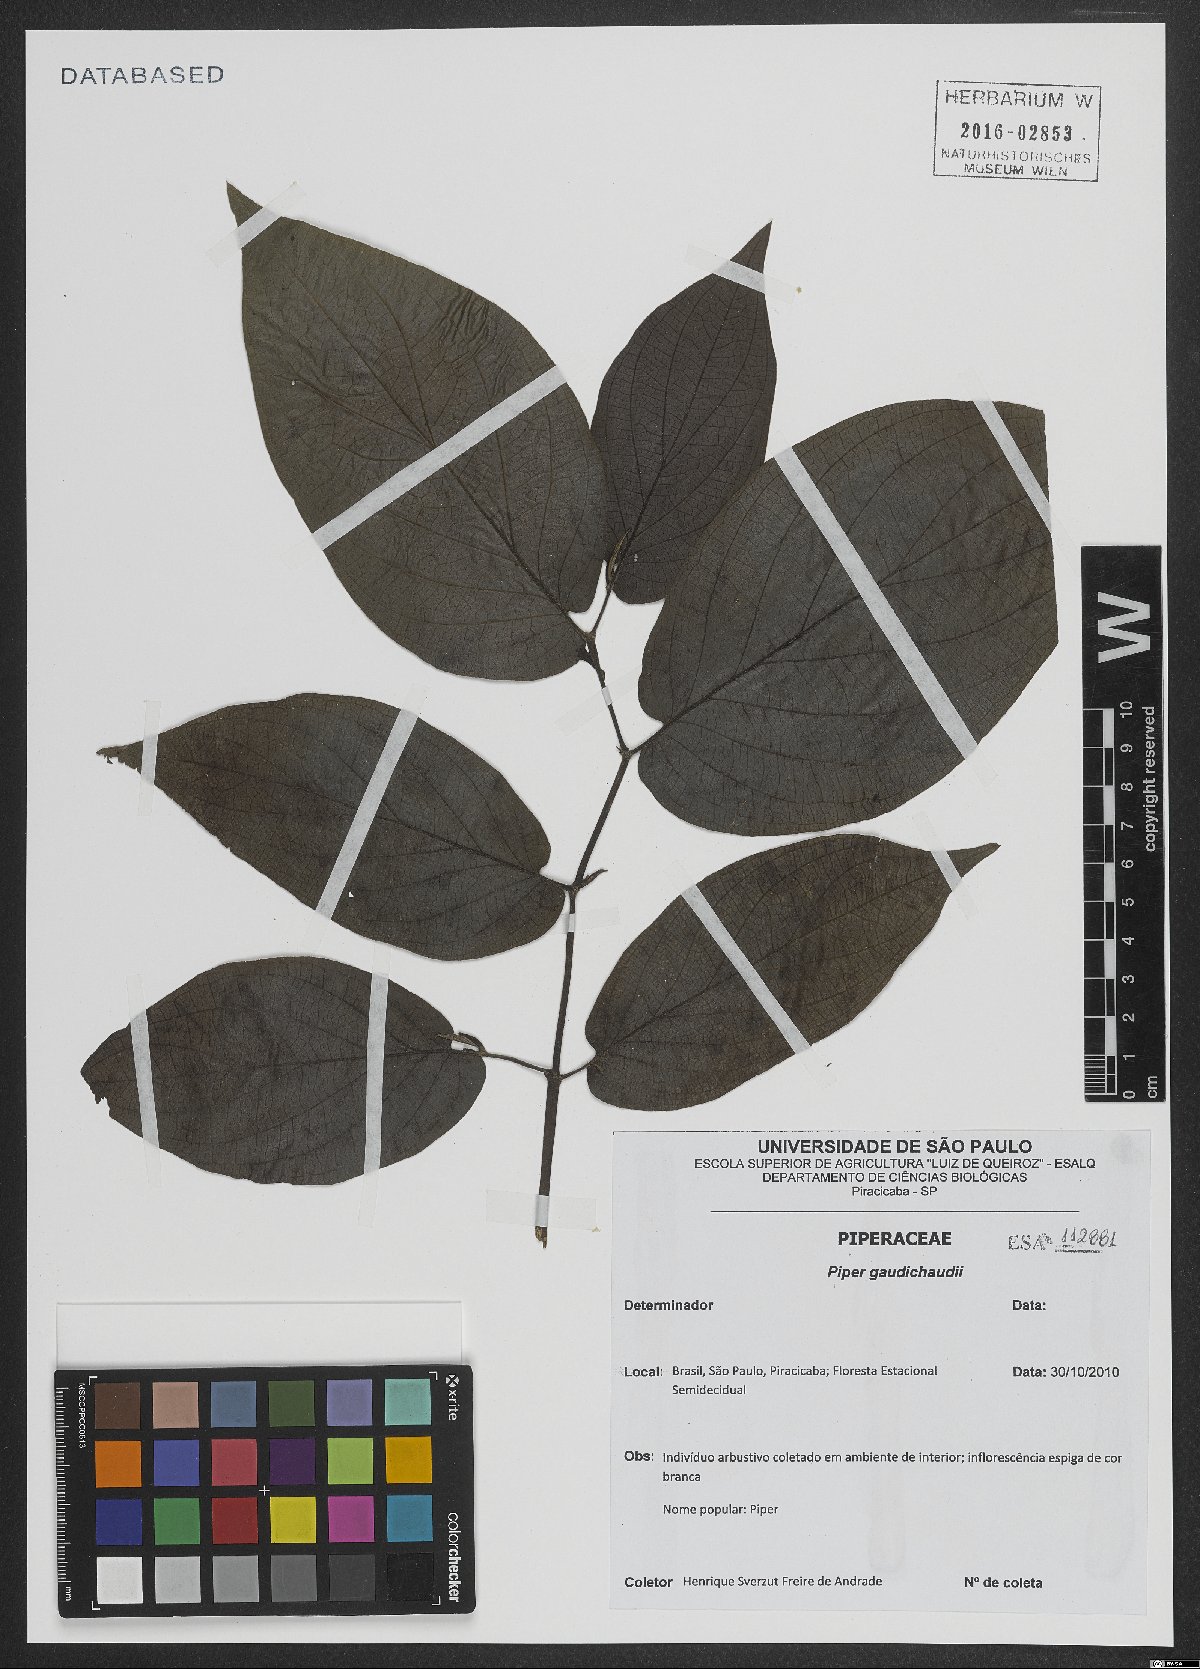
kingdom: Plantae
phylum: Tracheophyta
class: Magnoliopsida
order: Piperales
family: Piperaceae
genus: Piper
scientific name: Piper gaudichaudianum
